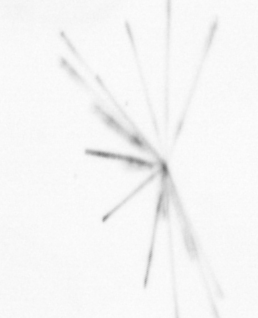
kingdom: Chromista
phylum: Ochrophyta
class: Bacillariophyceae
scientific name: Bacillariophyceae
